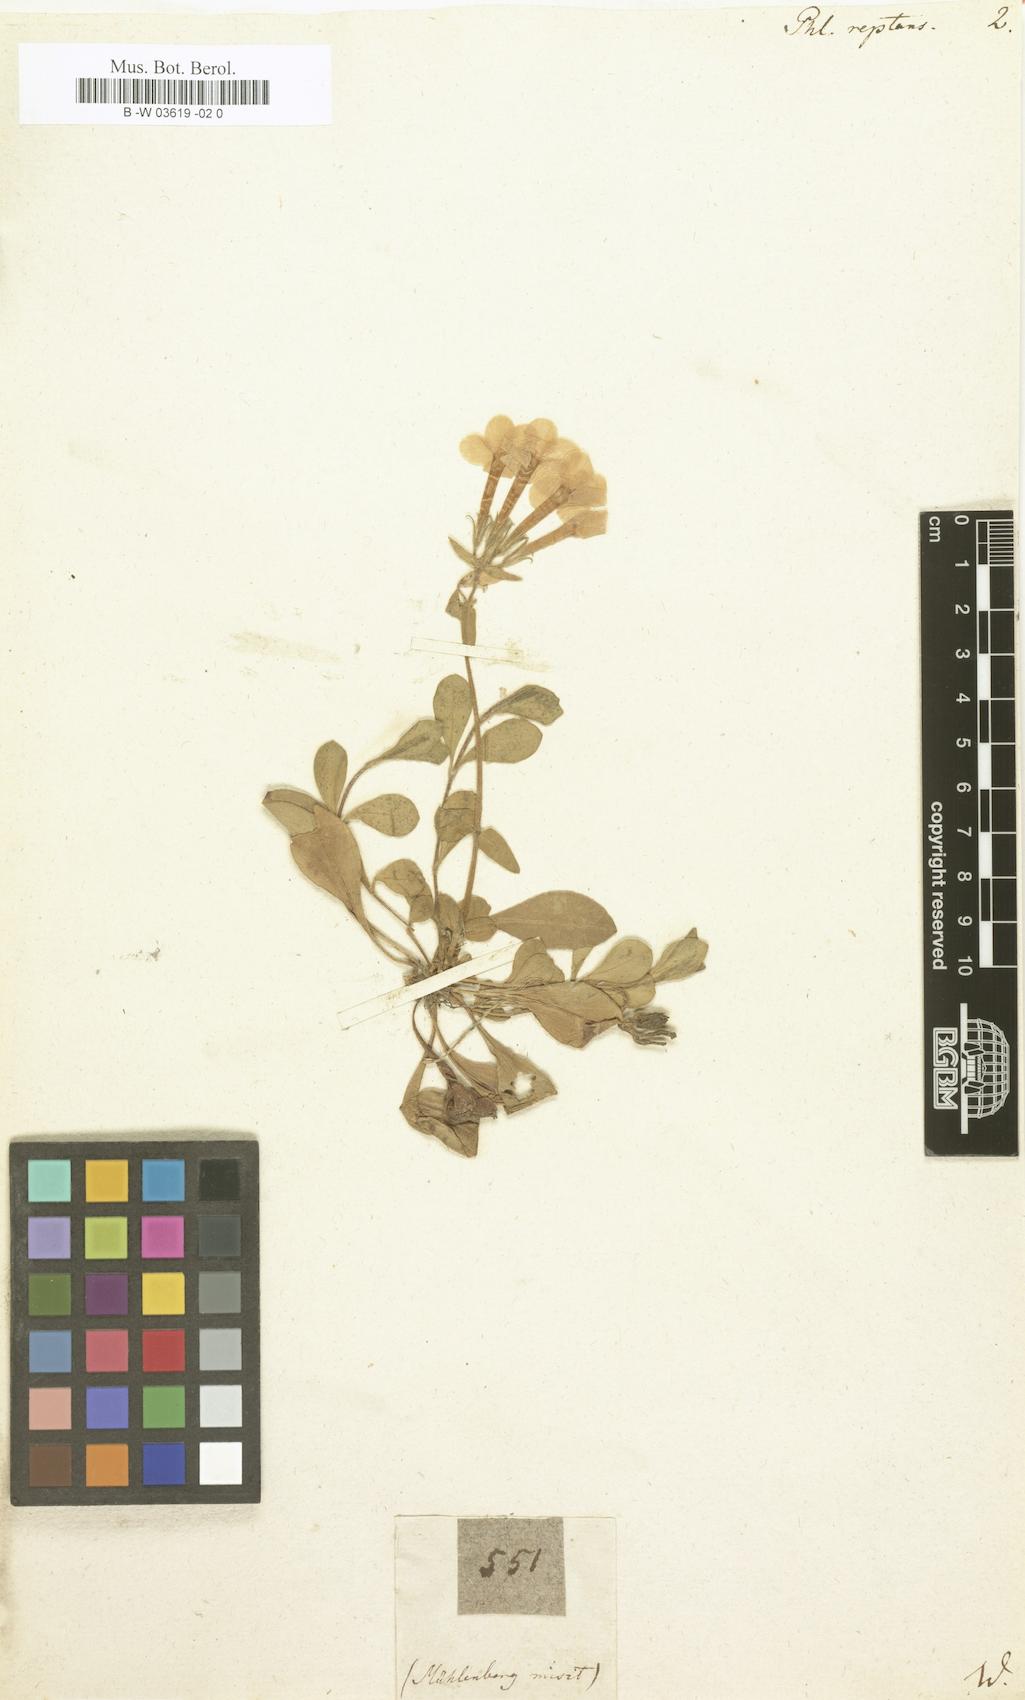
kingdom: Plantae
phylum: Tracheophyta
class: Magnoliopsida
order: Ericales
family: Polemoniaceae
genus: Phlox
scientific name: Phlox stolonifera
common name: Creeping phlox
